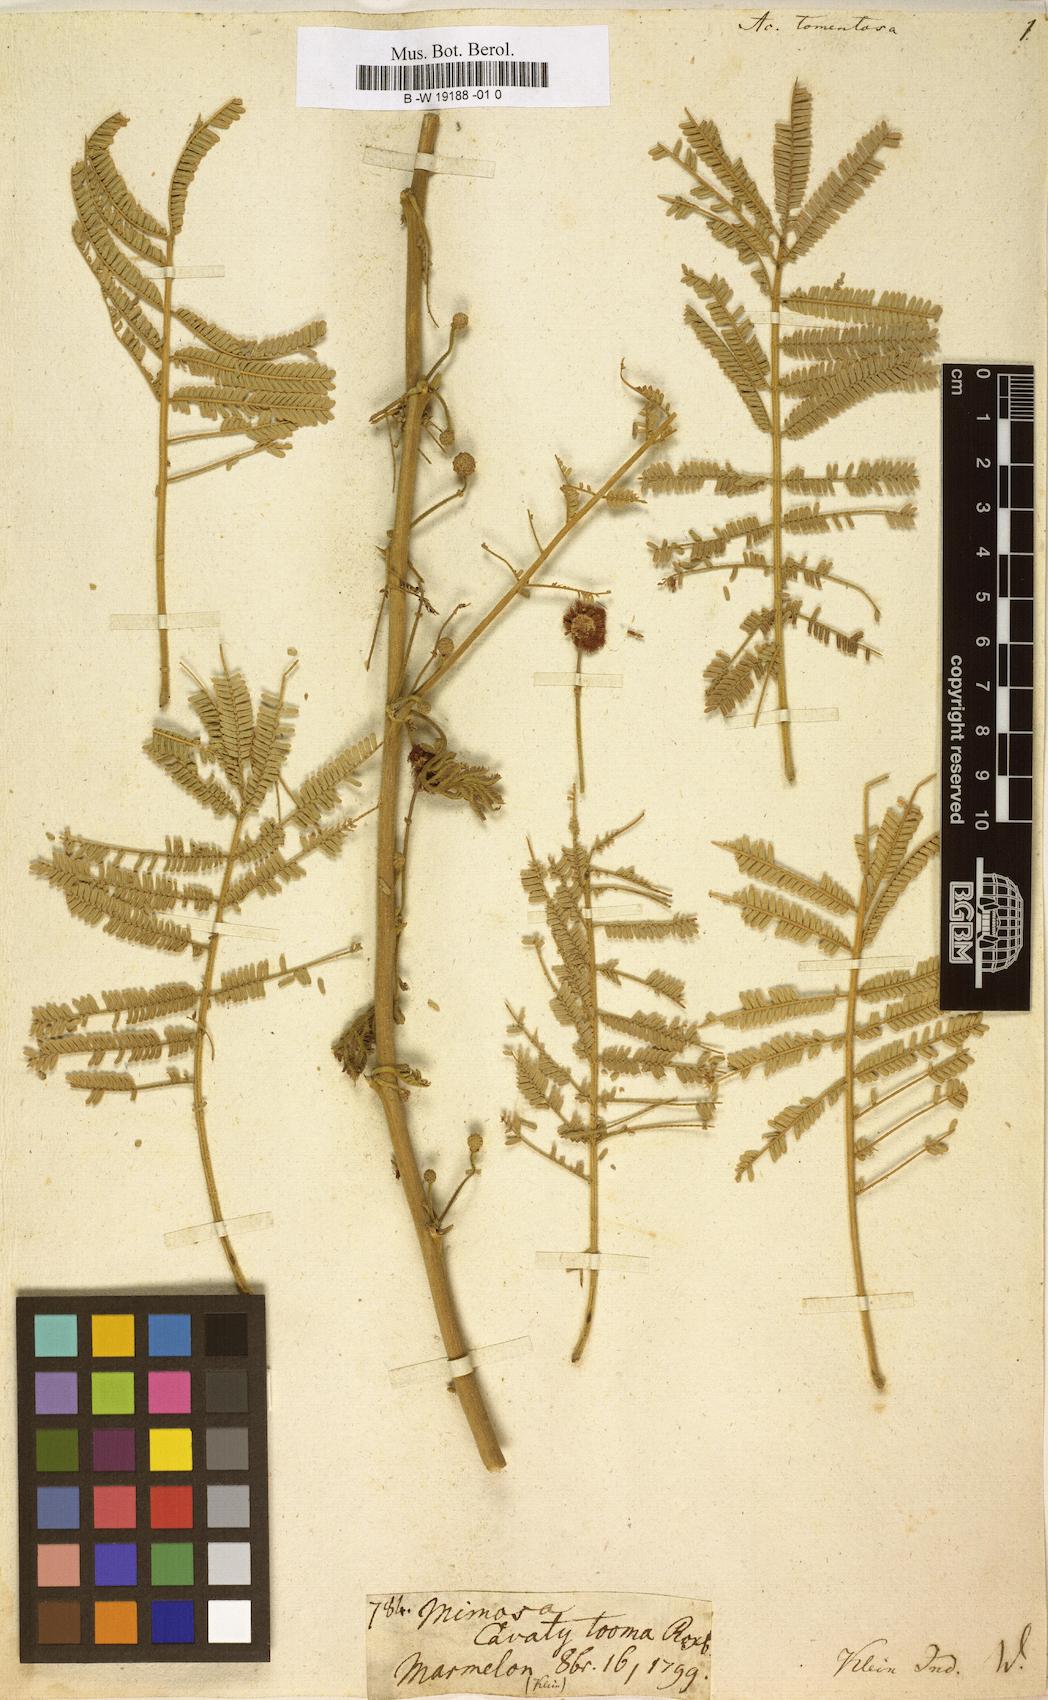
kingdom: Plantae
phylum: Tracheophyta
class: Magnoliopsida
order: Fabales
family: Fabaceae
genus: Vachellia
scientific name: Vachellia tomentosa
